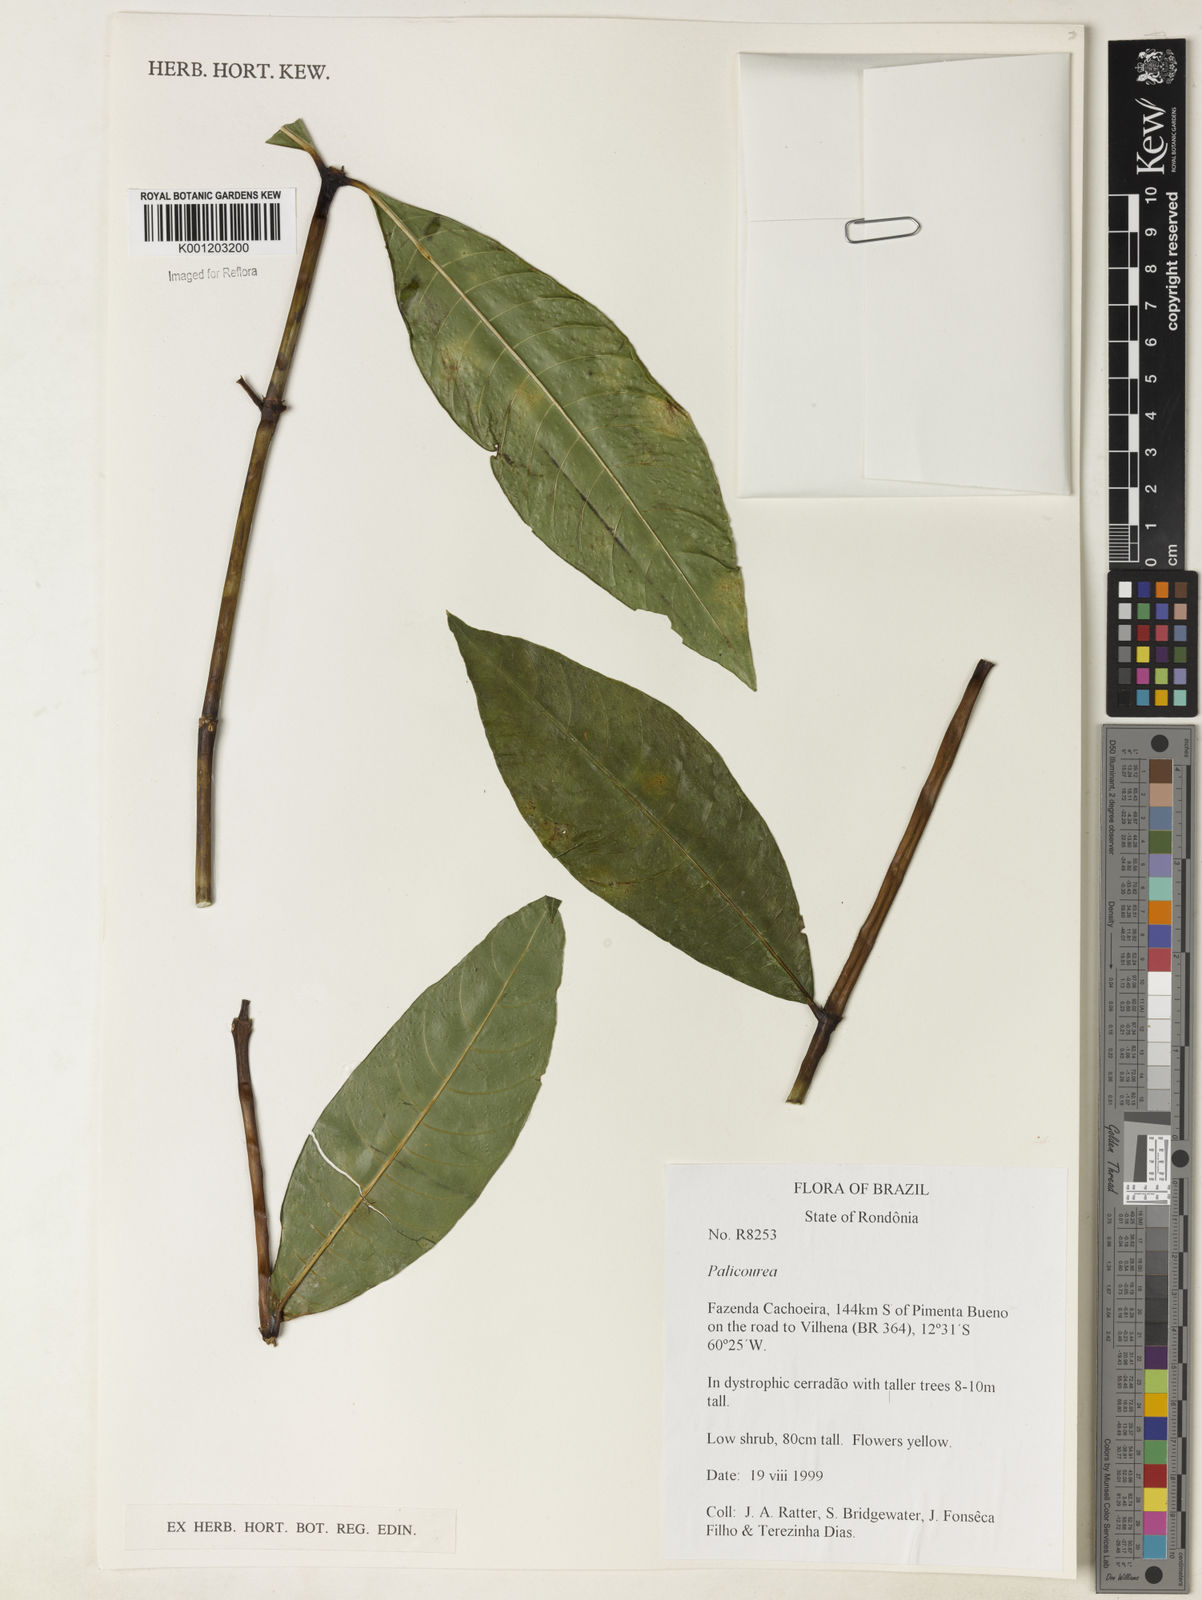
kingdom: Plantae
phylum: Tracheophyta
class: Magnoliopsida
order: Gentianales
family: Rubiaceae
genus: Palicourea
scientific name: Palicourea
